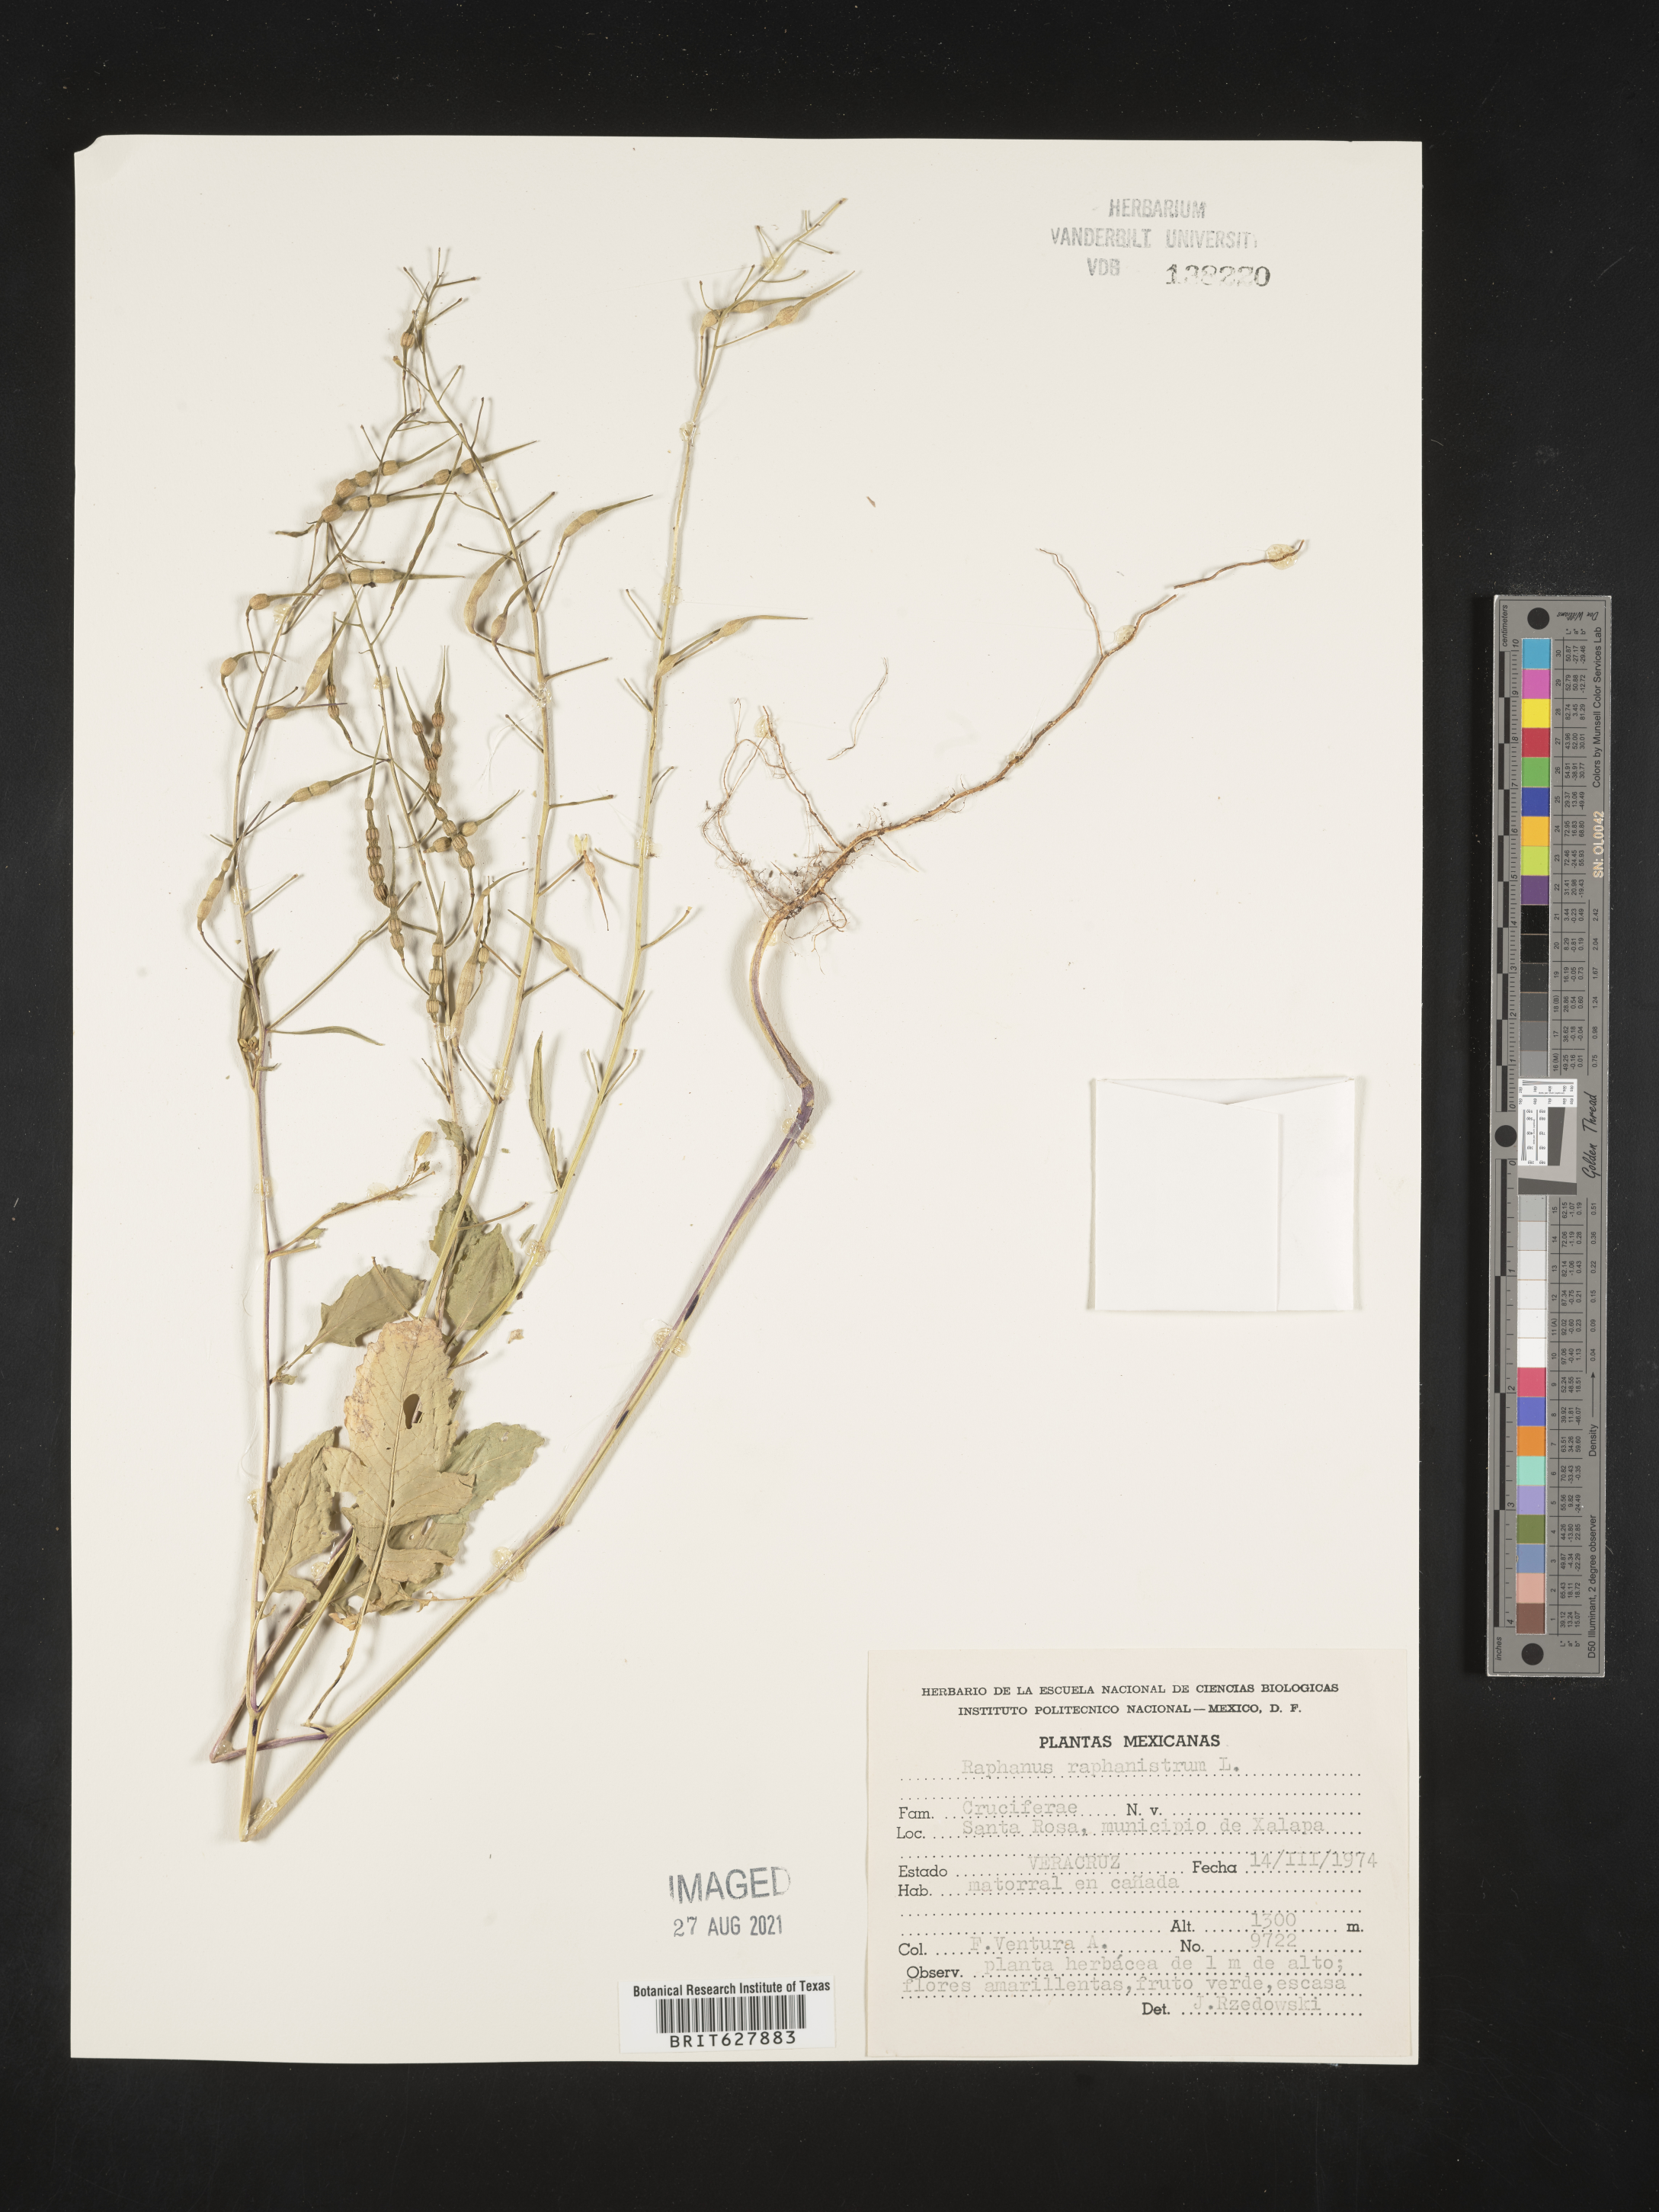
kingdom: Plantae
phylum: Tracheophyta
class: Magnoliopsida
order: Brassicales
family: Brassicaceae
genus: Raphanus
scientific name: Raphanus
